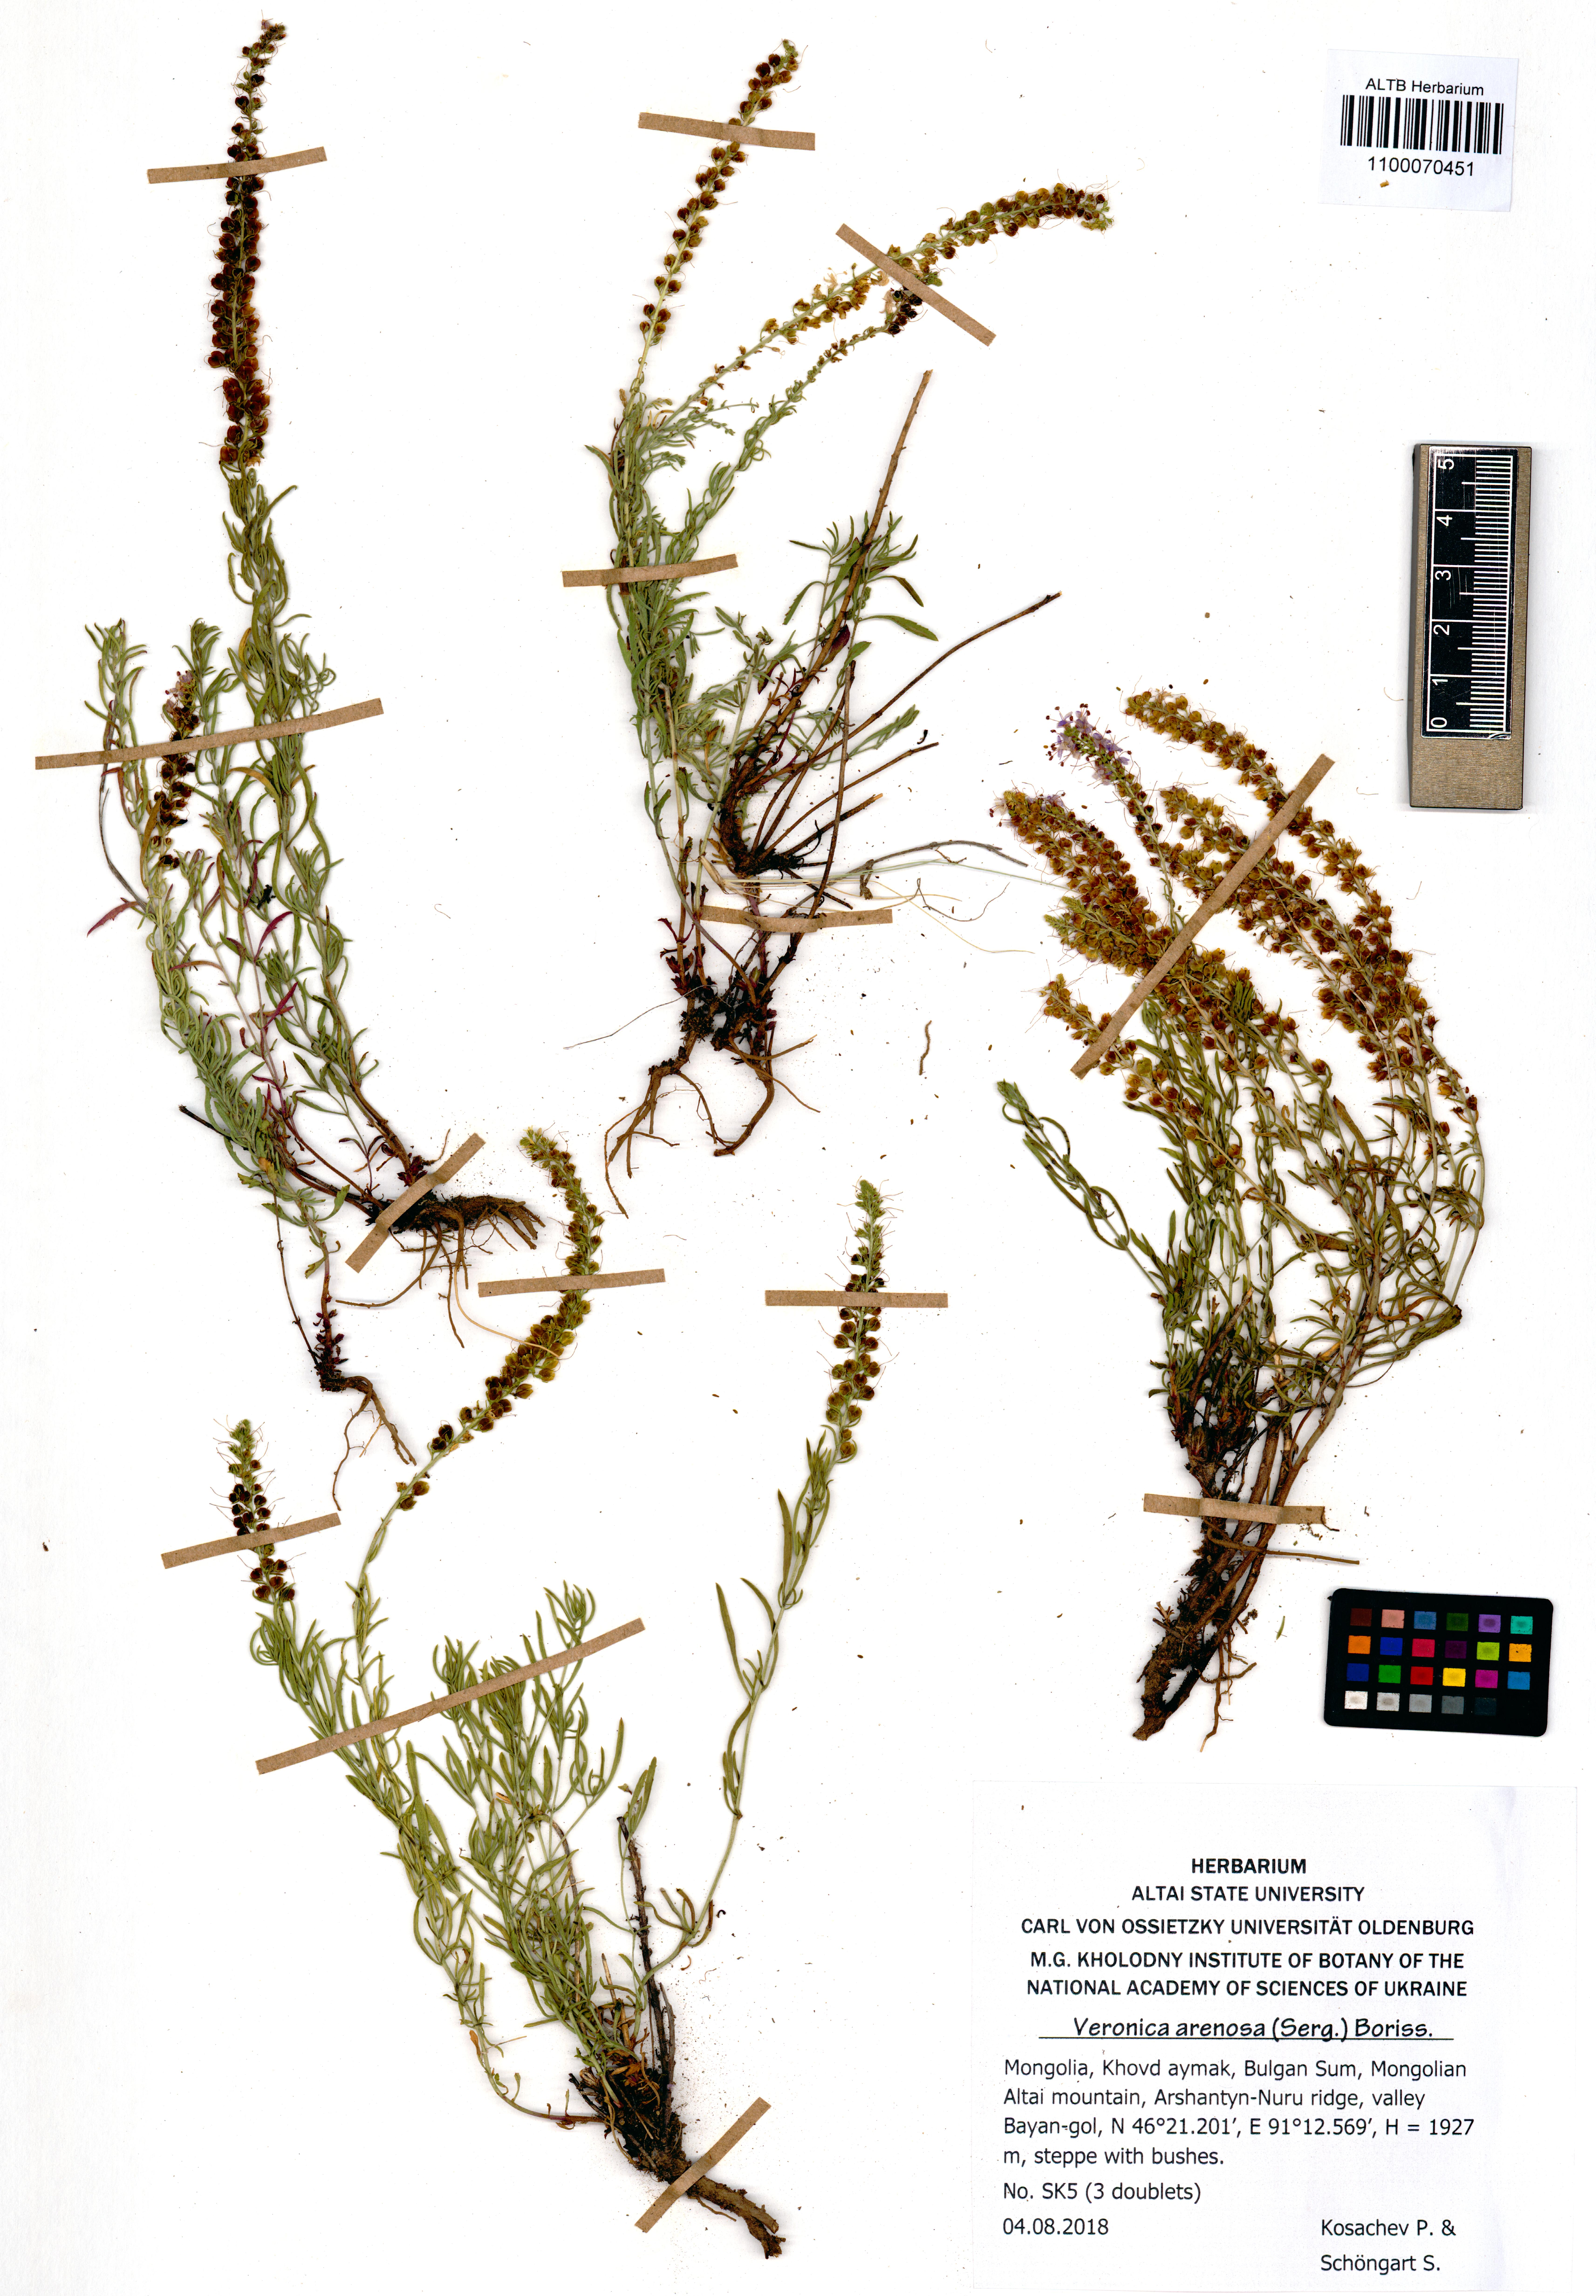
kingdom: Plantae
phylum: Tracheophyta
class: Magnoliopsida
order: Lamiales
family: Plantaginaceae
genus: Veronica
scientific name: Veronica arenosa
